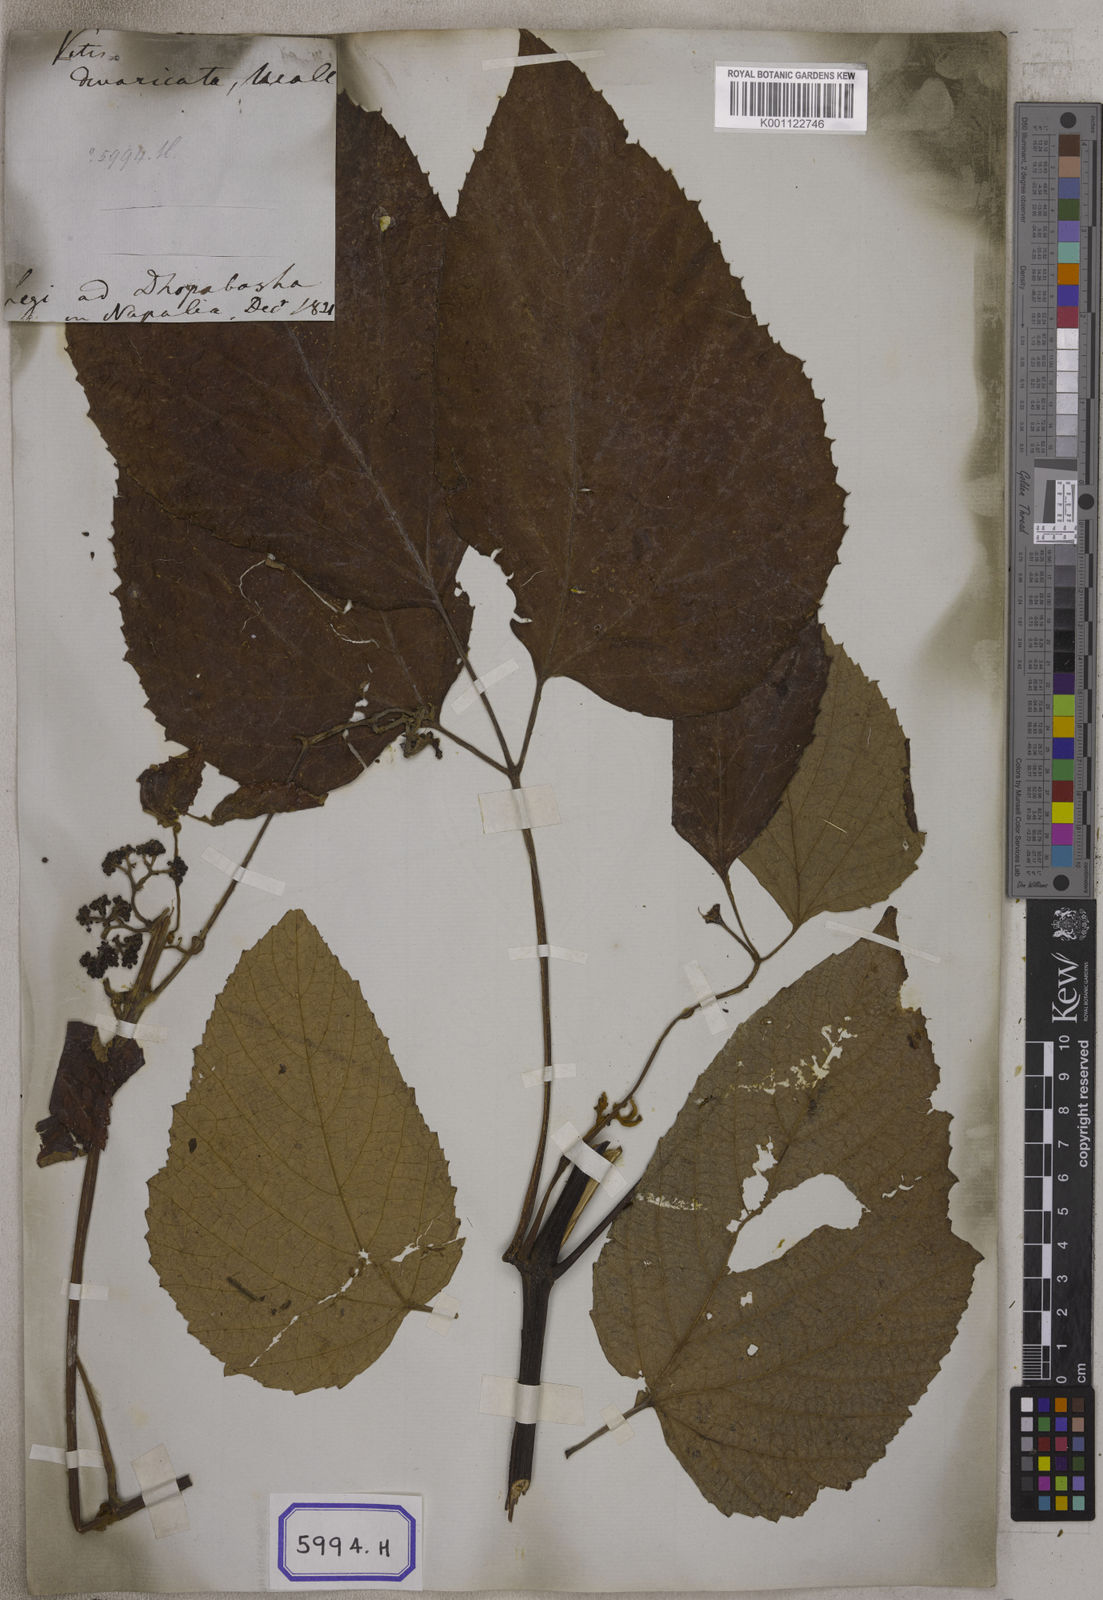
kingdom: Plantae
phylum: Tracheophyta
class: Magnoliopsida
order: Vitales
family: Vitaceae
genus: Ampelocissus
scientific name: Ampelocissus rugosa
